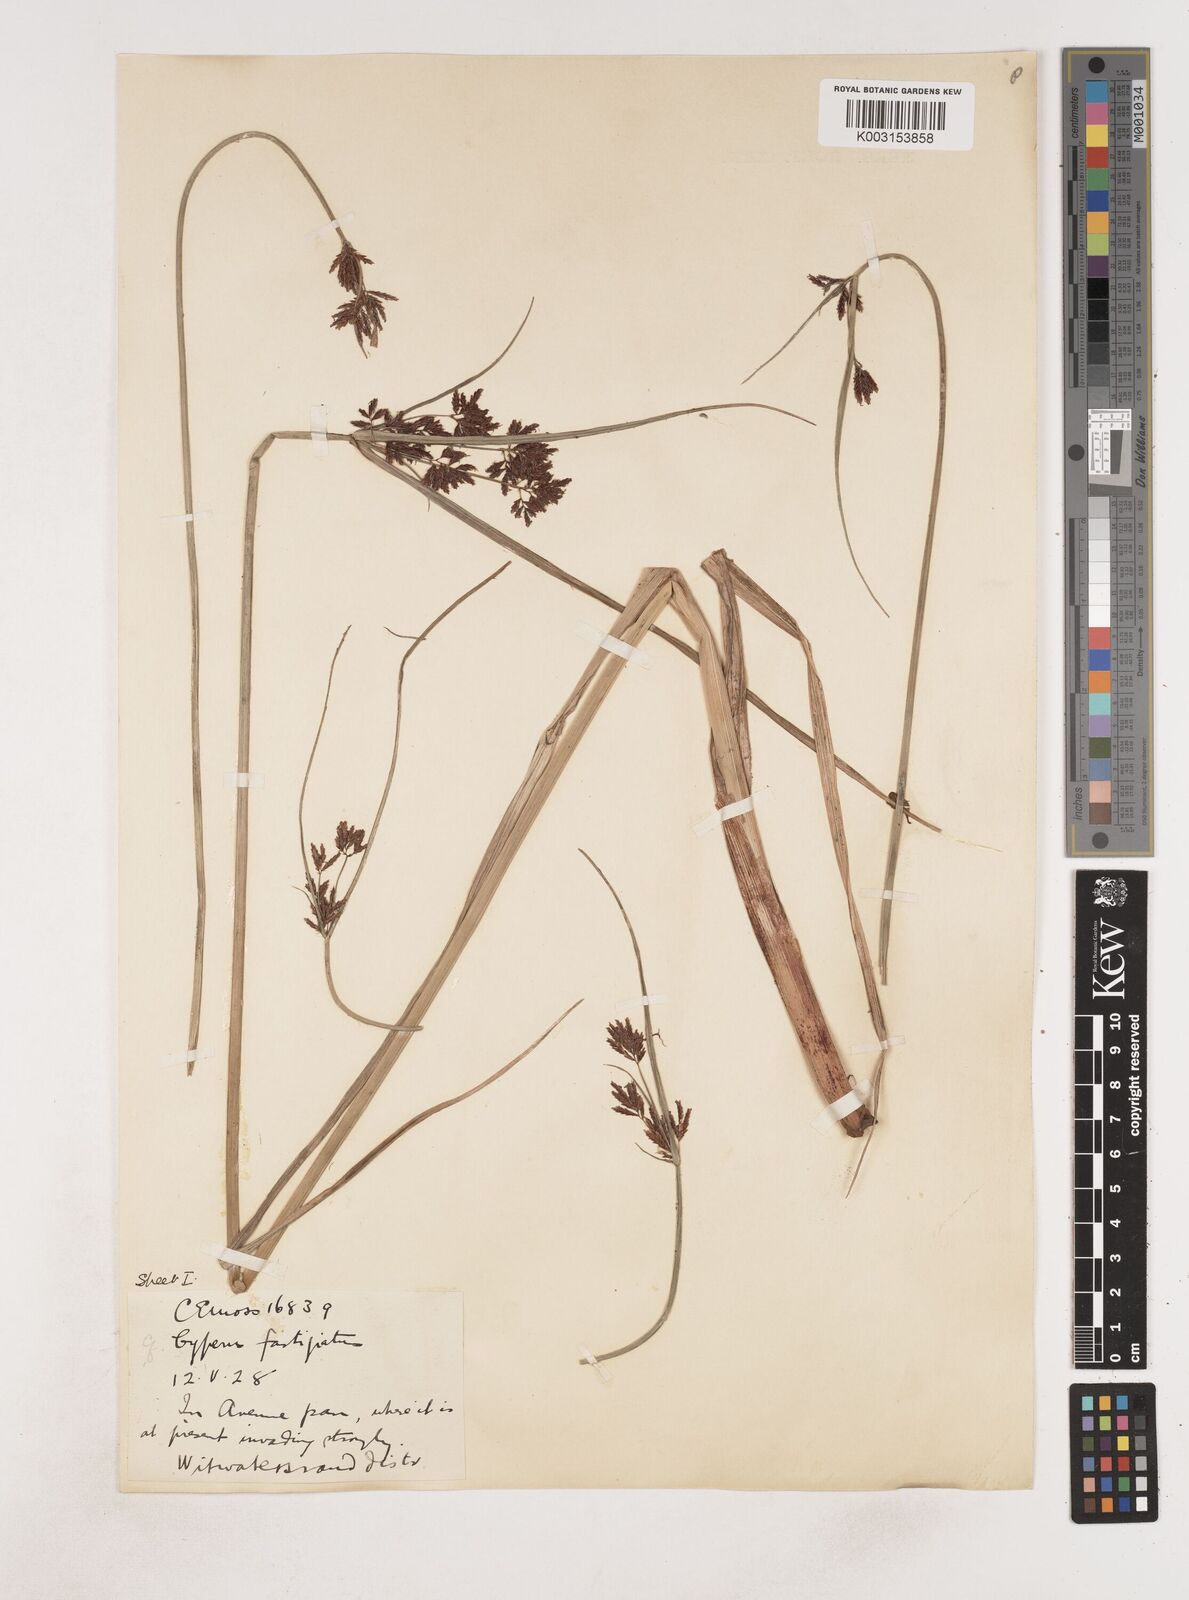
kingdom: Plantae
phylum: Tracheophyta
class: Liliopsida
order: Poales
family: Cyperaceae
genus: Cyperus
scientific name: Cyperus
